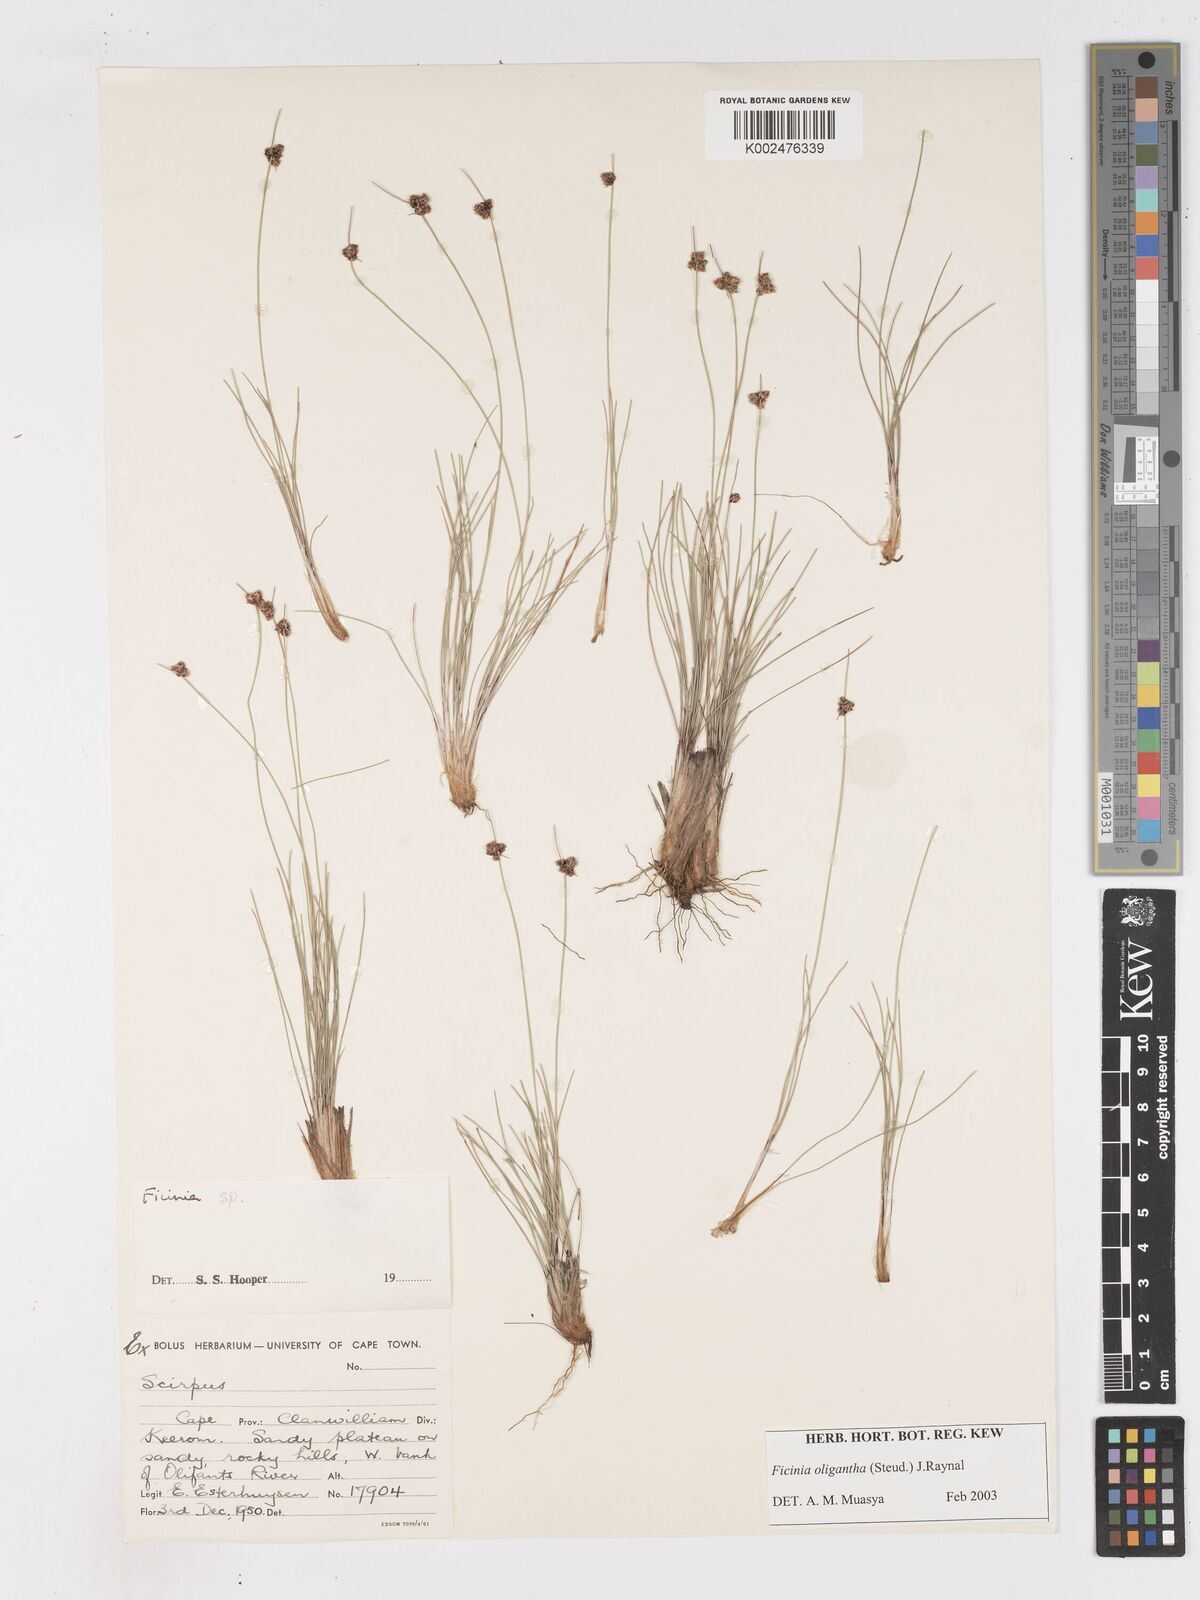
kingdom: Plantae
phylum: Tracheophyta
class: Liliopsida
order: Poales
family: Cyperaceae
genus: Ficinia
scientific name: Ficinia oligantha
